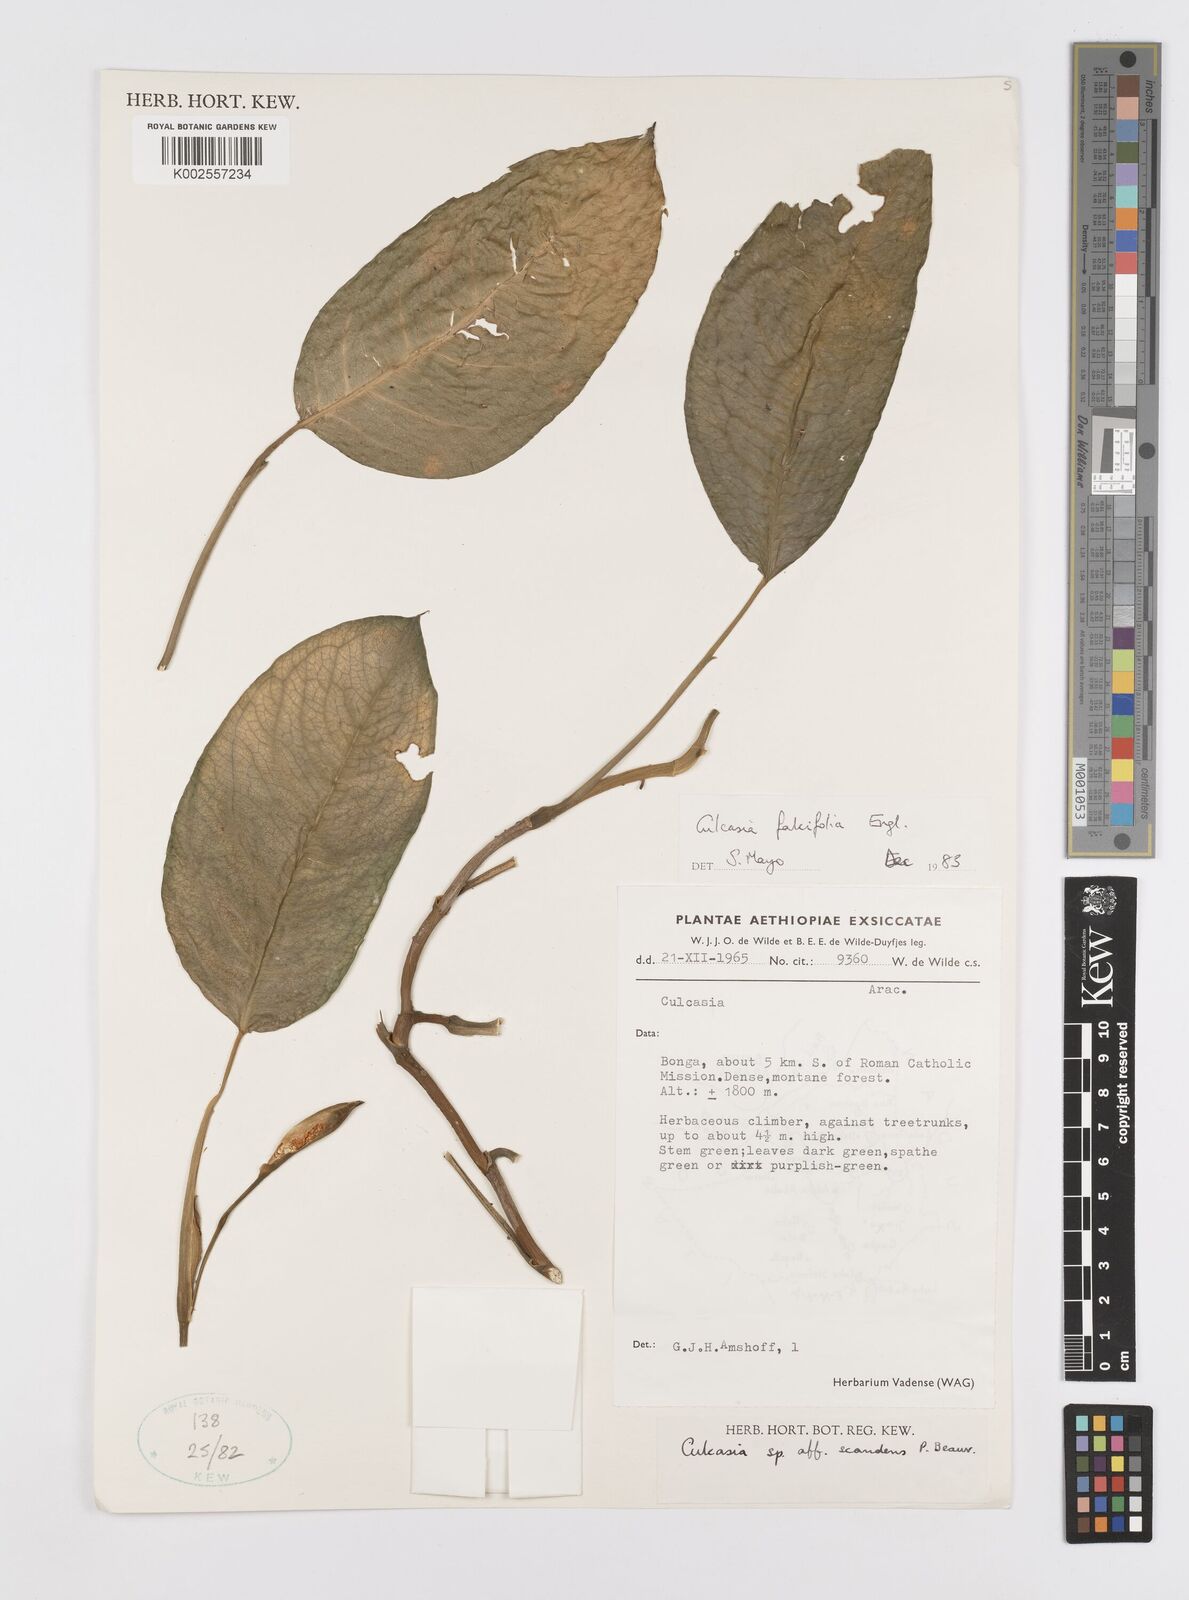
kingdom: Plantae
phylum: Tracheophyta
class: Liliopsida
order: Alismatales
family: Araceae
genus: Culcasia
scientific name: Culcasia falcifolia
